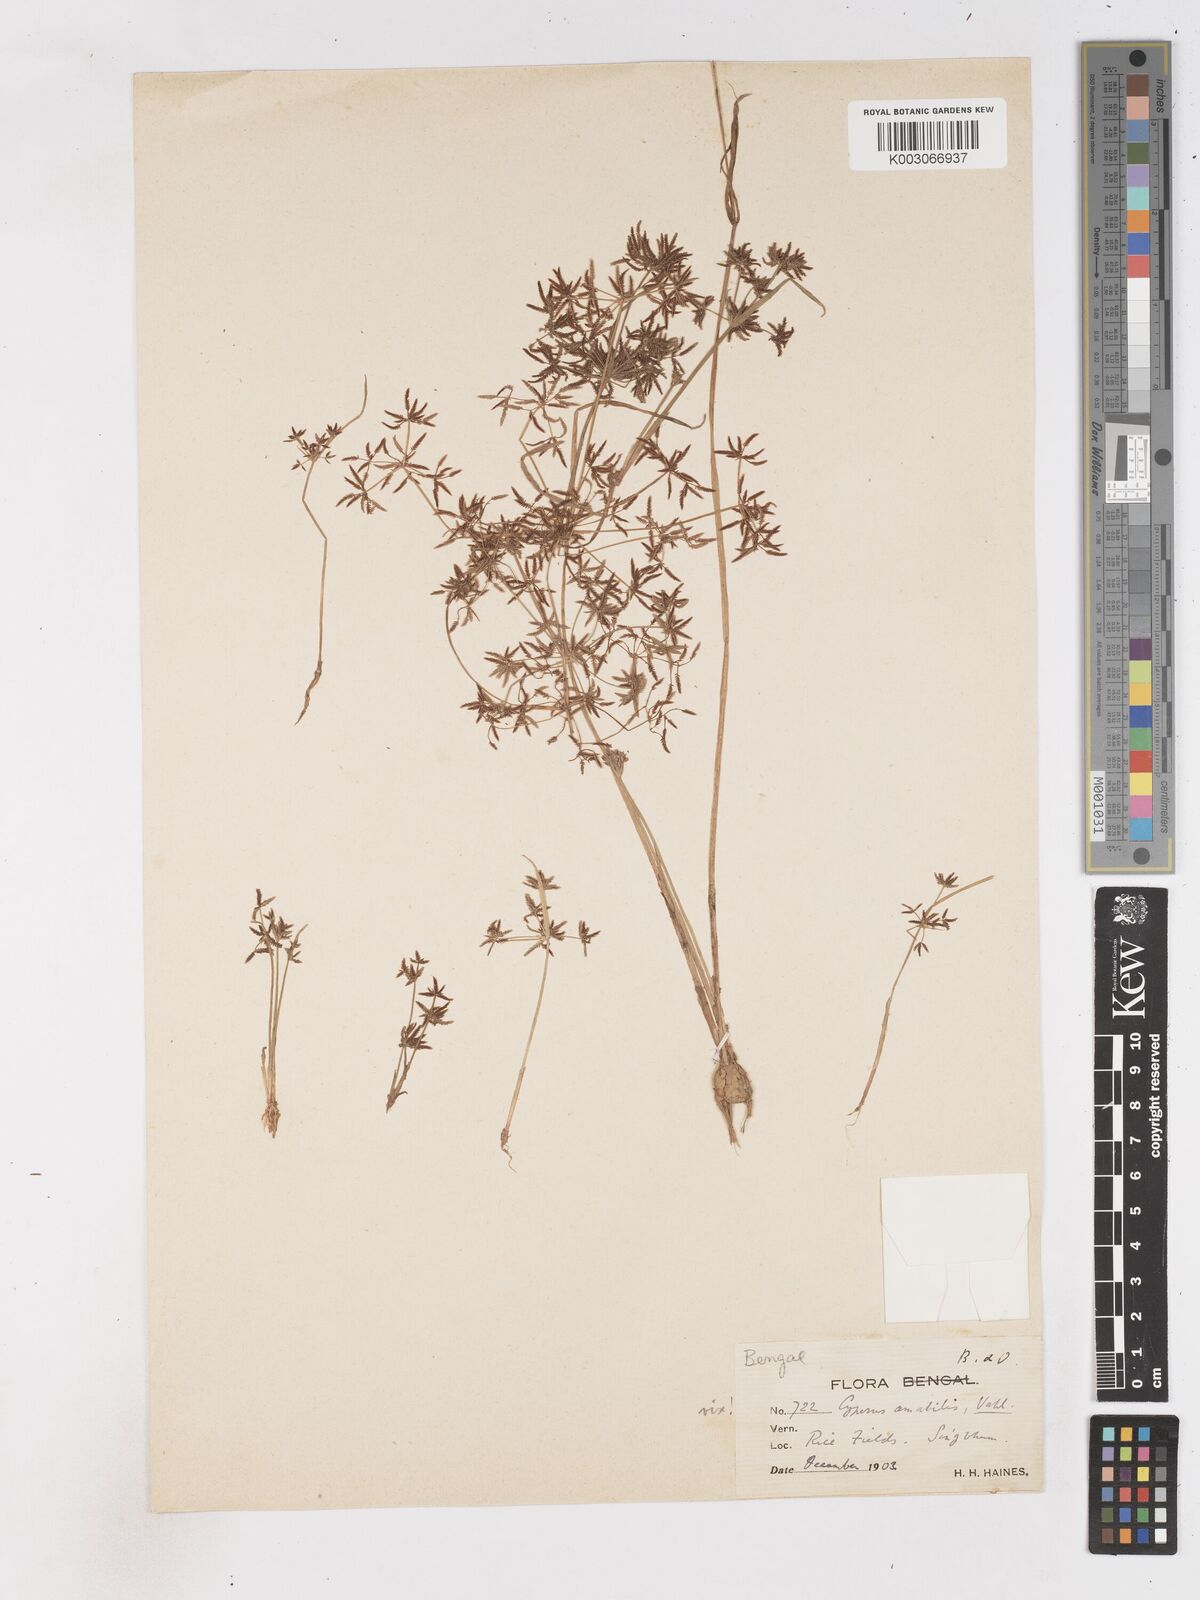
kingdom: Plantae
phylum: Tracheophyta
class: Liliopsida
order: Poales
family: Cyperaceae
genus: Cyperus
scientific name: Cyperus tenuispica
